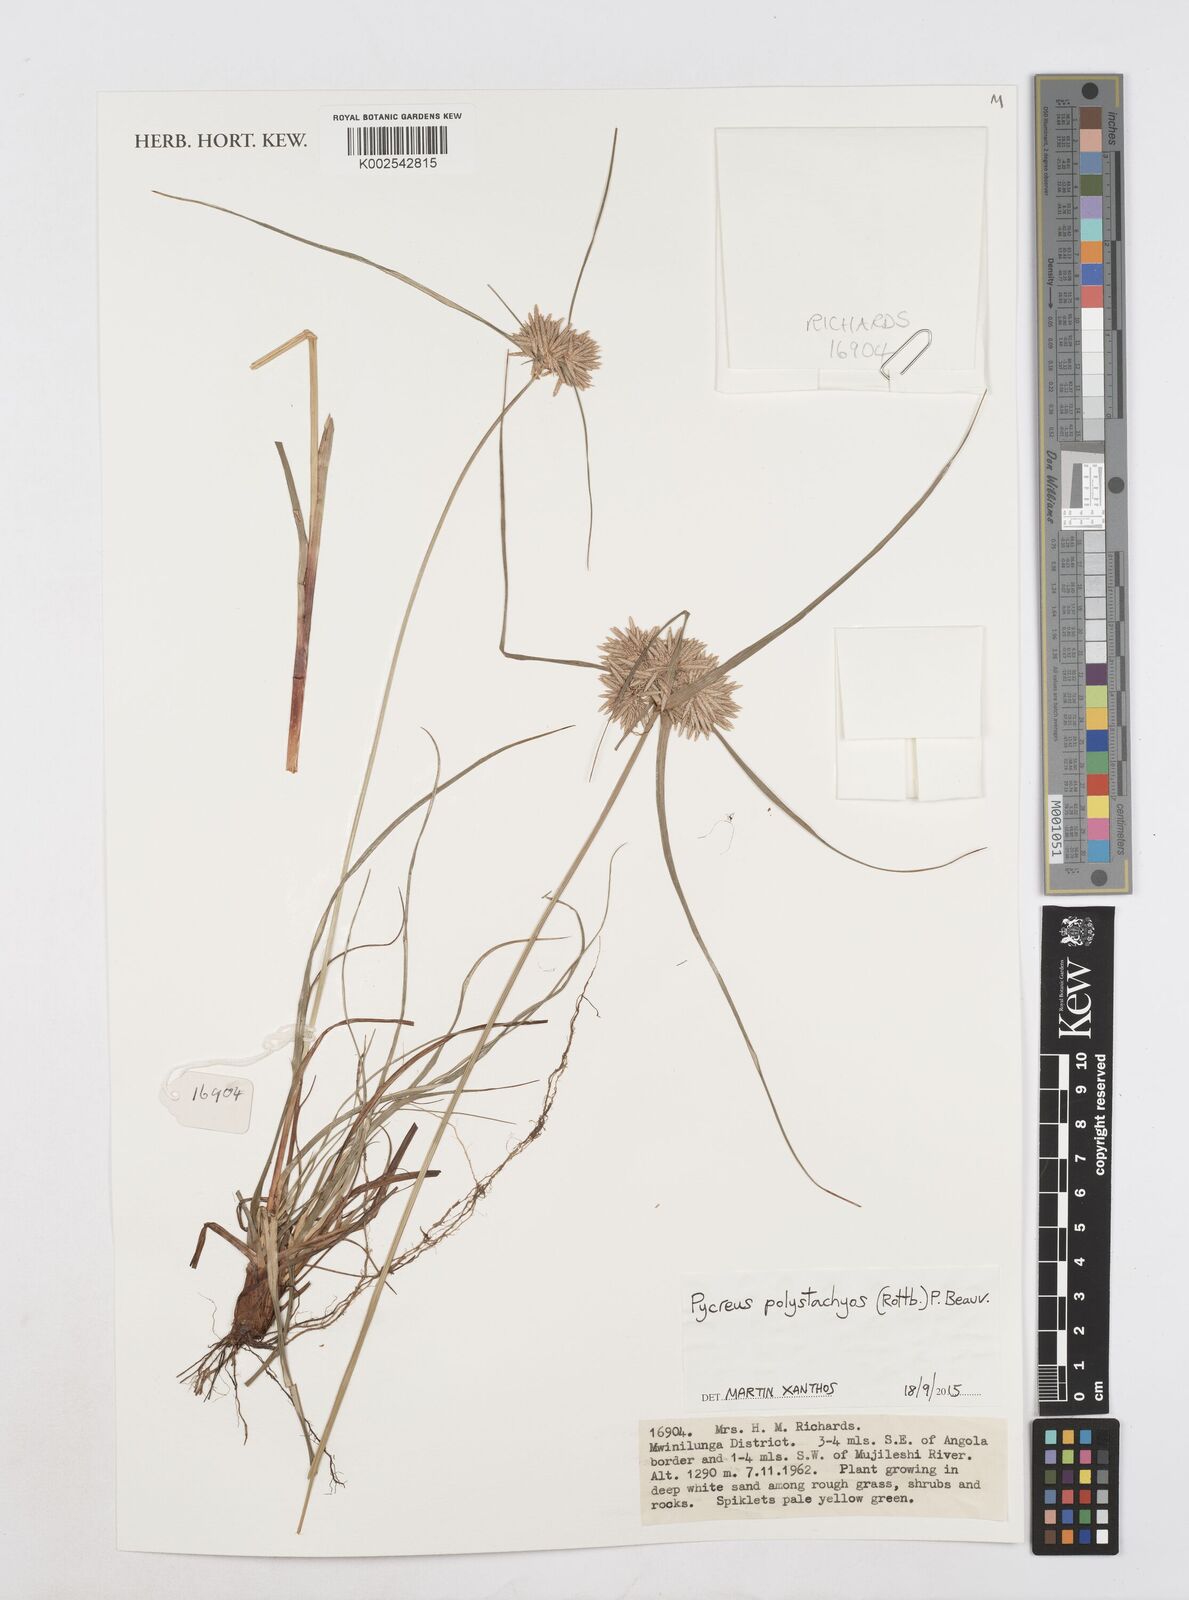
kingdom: Plantae
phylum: Tracheophyta
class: Liliopsida
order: Poales
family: Cyperaceae
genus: Cyperus
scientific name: Cyperus polystachyos
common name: Bunchy flat sedge
